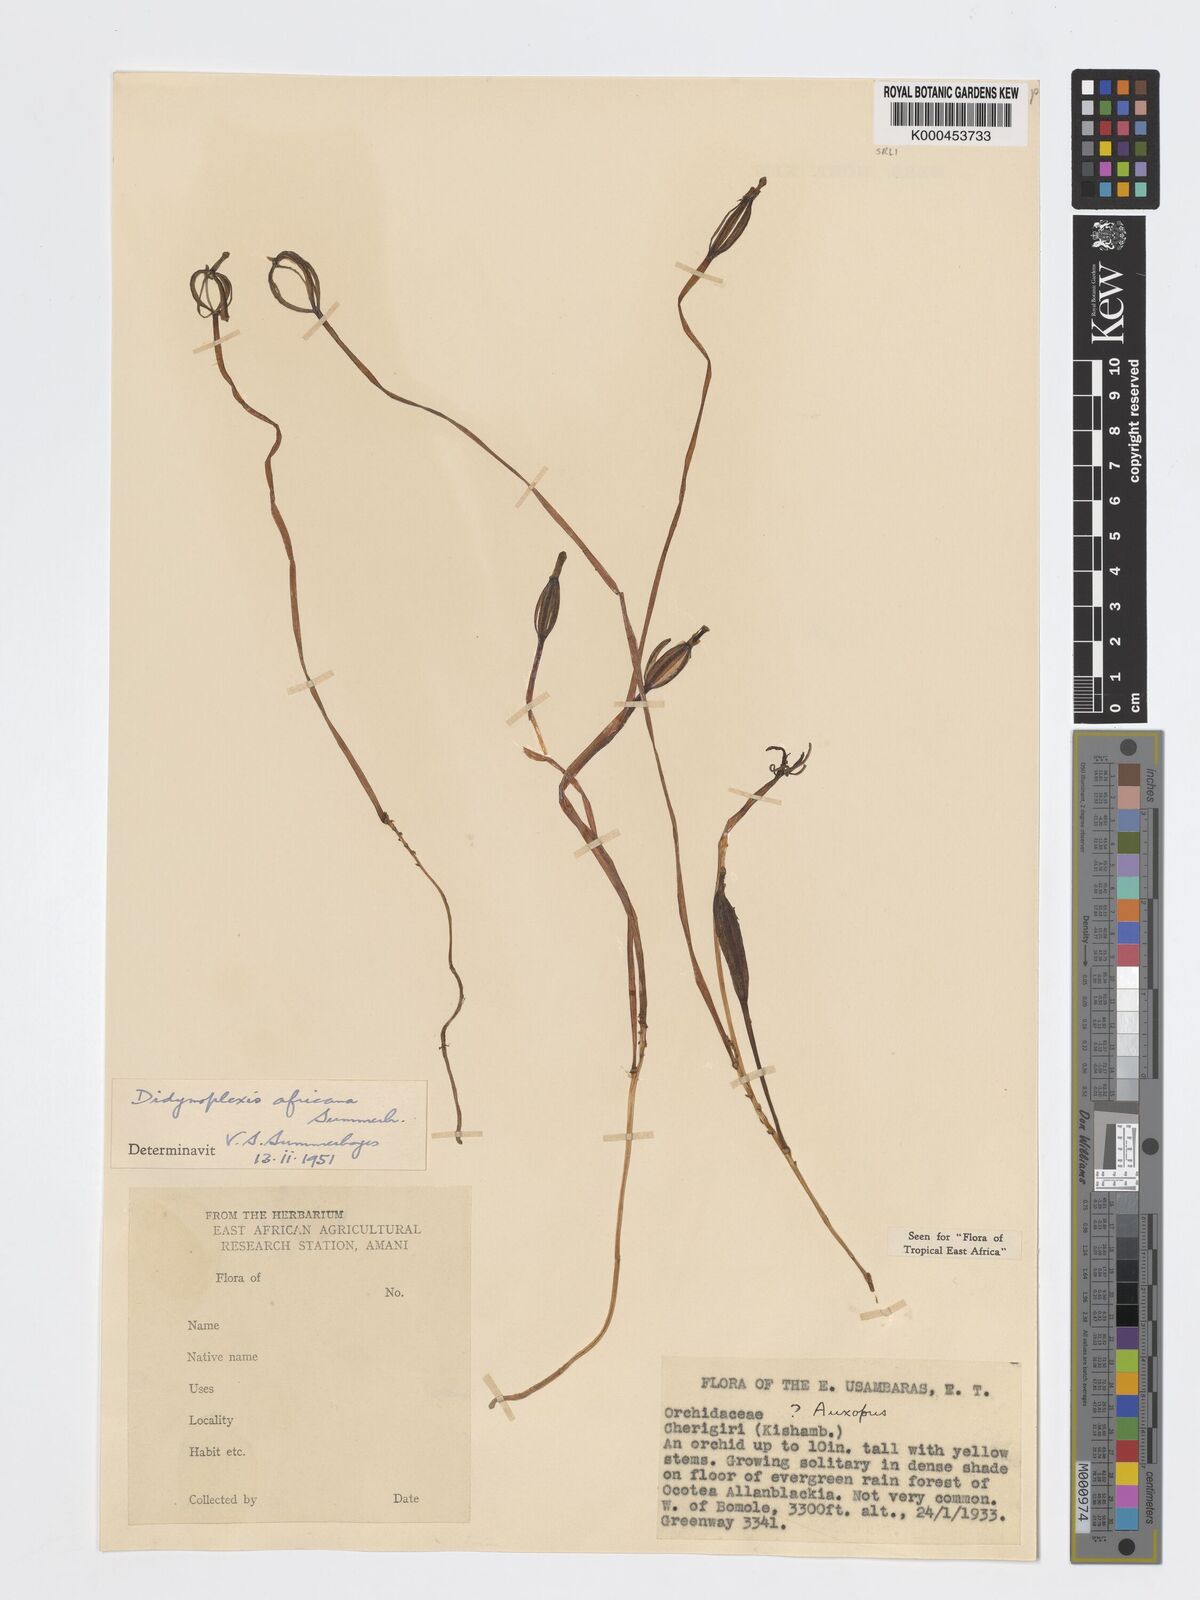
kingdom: Plantae
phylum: Tracheophyta
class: Liliopsida
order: Asparagales
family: Orchidaceae
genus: Didymoplexis
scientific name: Didymoplexis africana
